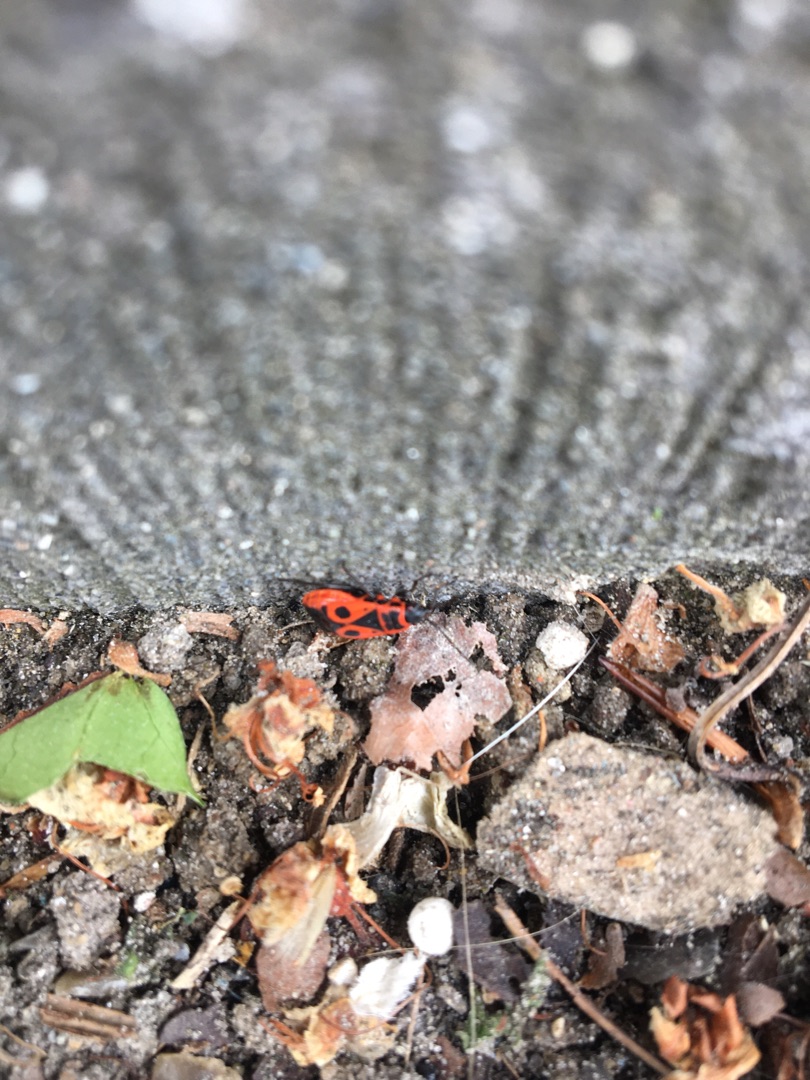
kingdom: Animalia
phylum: Arthropoda
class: Insecta
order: Hemiptera
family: Pyrrhocoridae
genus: Pyrrhocoris
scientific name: Pyrrhocoris apterus
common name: Ildtæge
